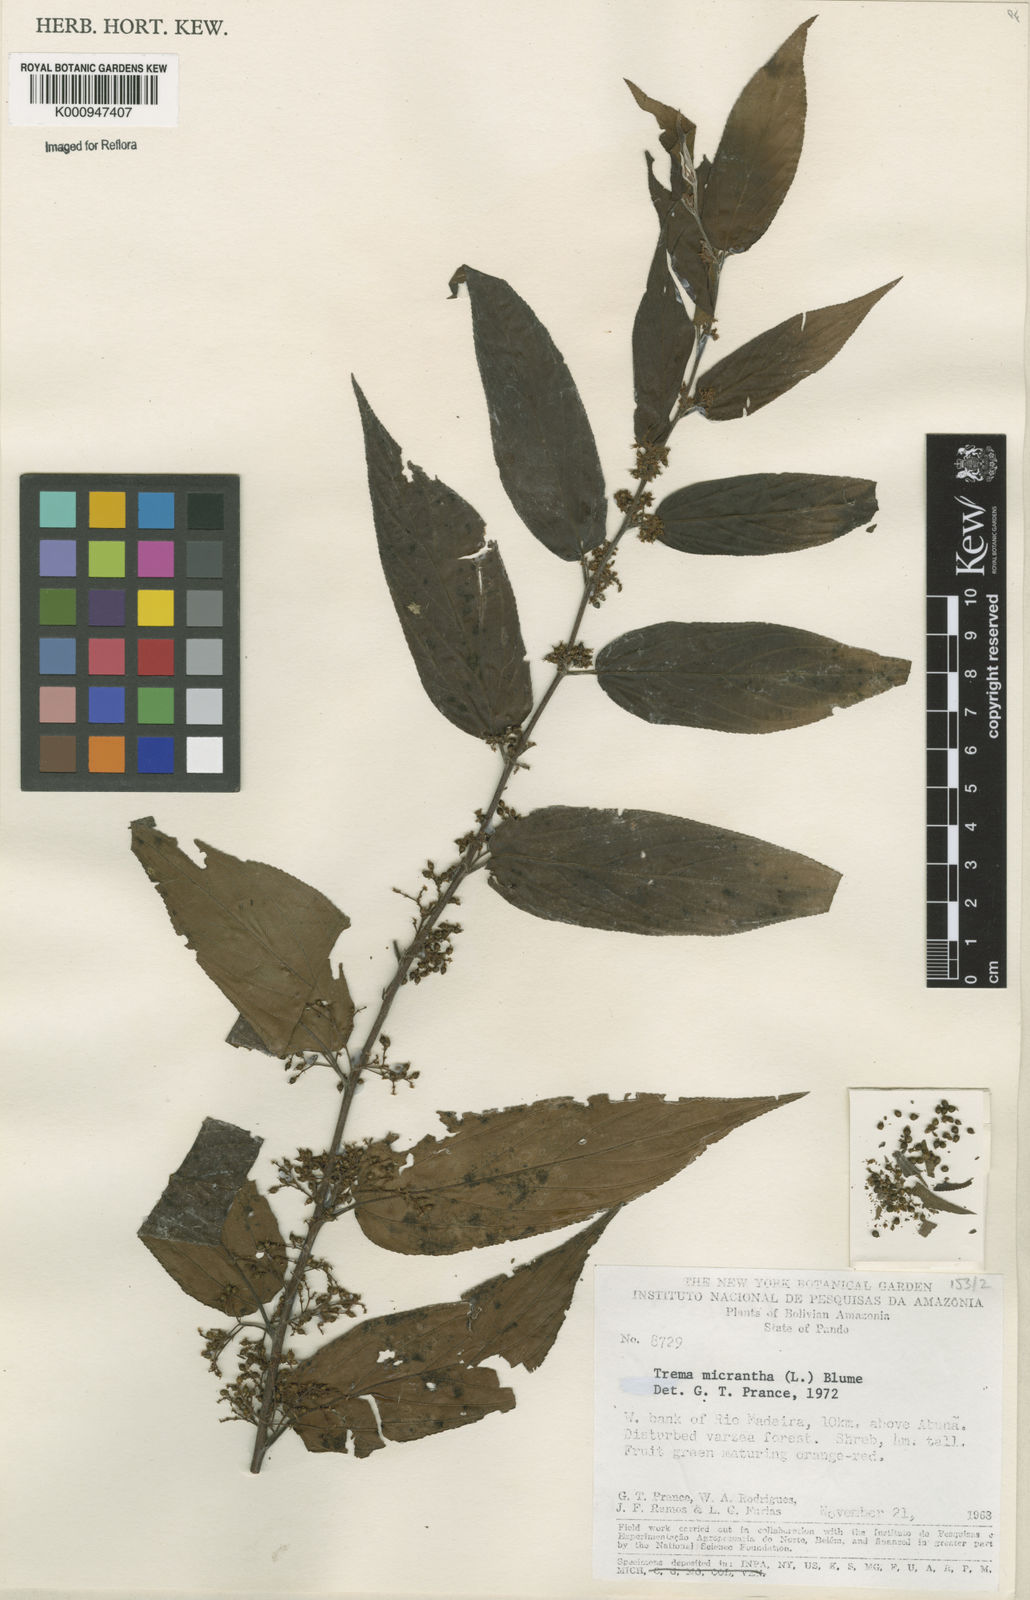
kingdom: Plantae
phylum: Tracheophyta
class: Magnoliopsida
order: Rosales
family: Cannabaceae
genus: Trema
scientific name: Trema micranthum
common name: Jamaican nettletree
